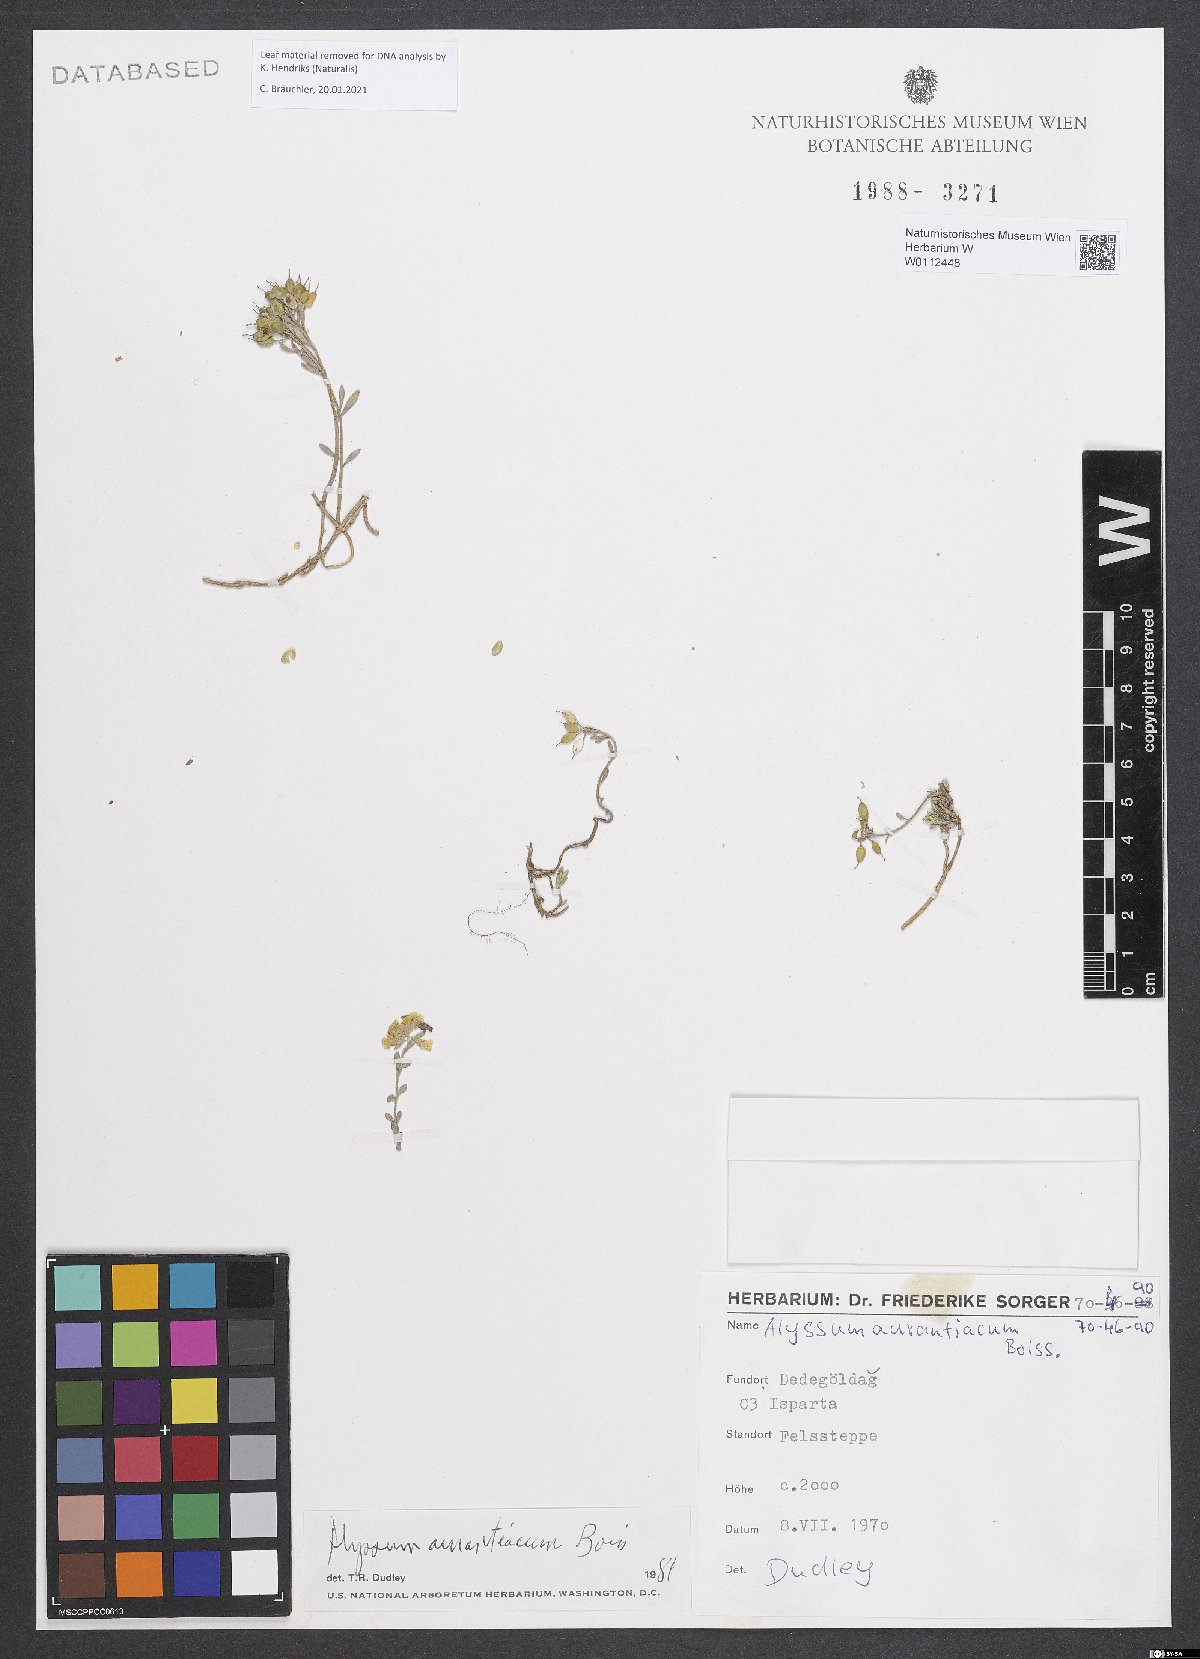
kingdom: Plantae
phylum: Tracheophyta
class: Magnoliopsida
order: Brassicales
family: Brassicaceae
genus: Alyssum
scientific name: Alyssum aurantiacum
